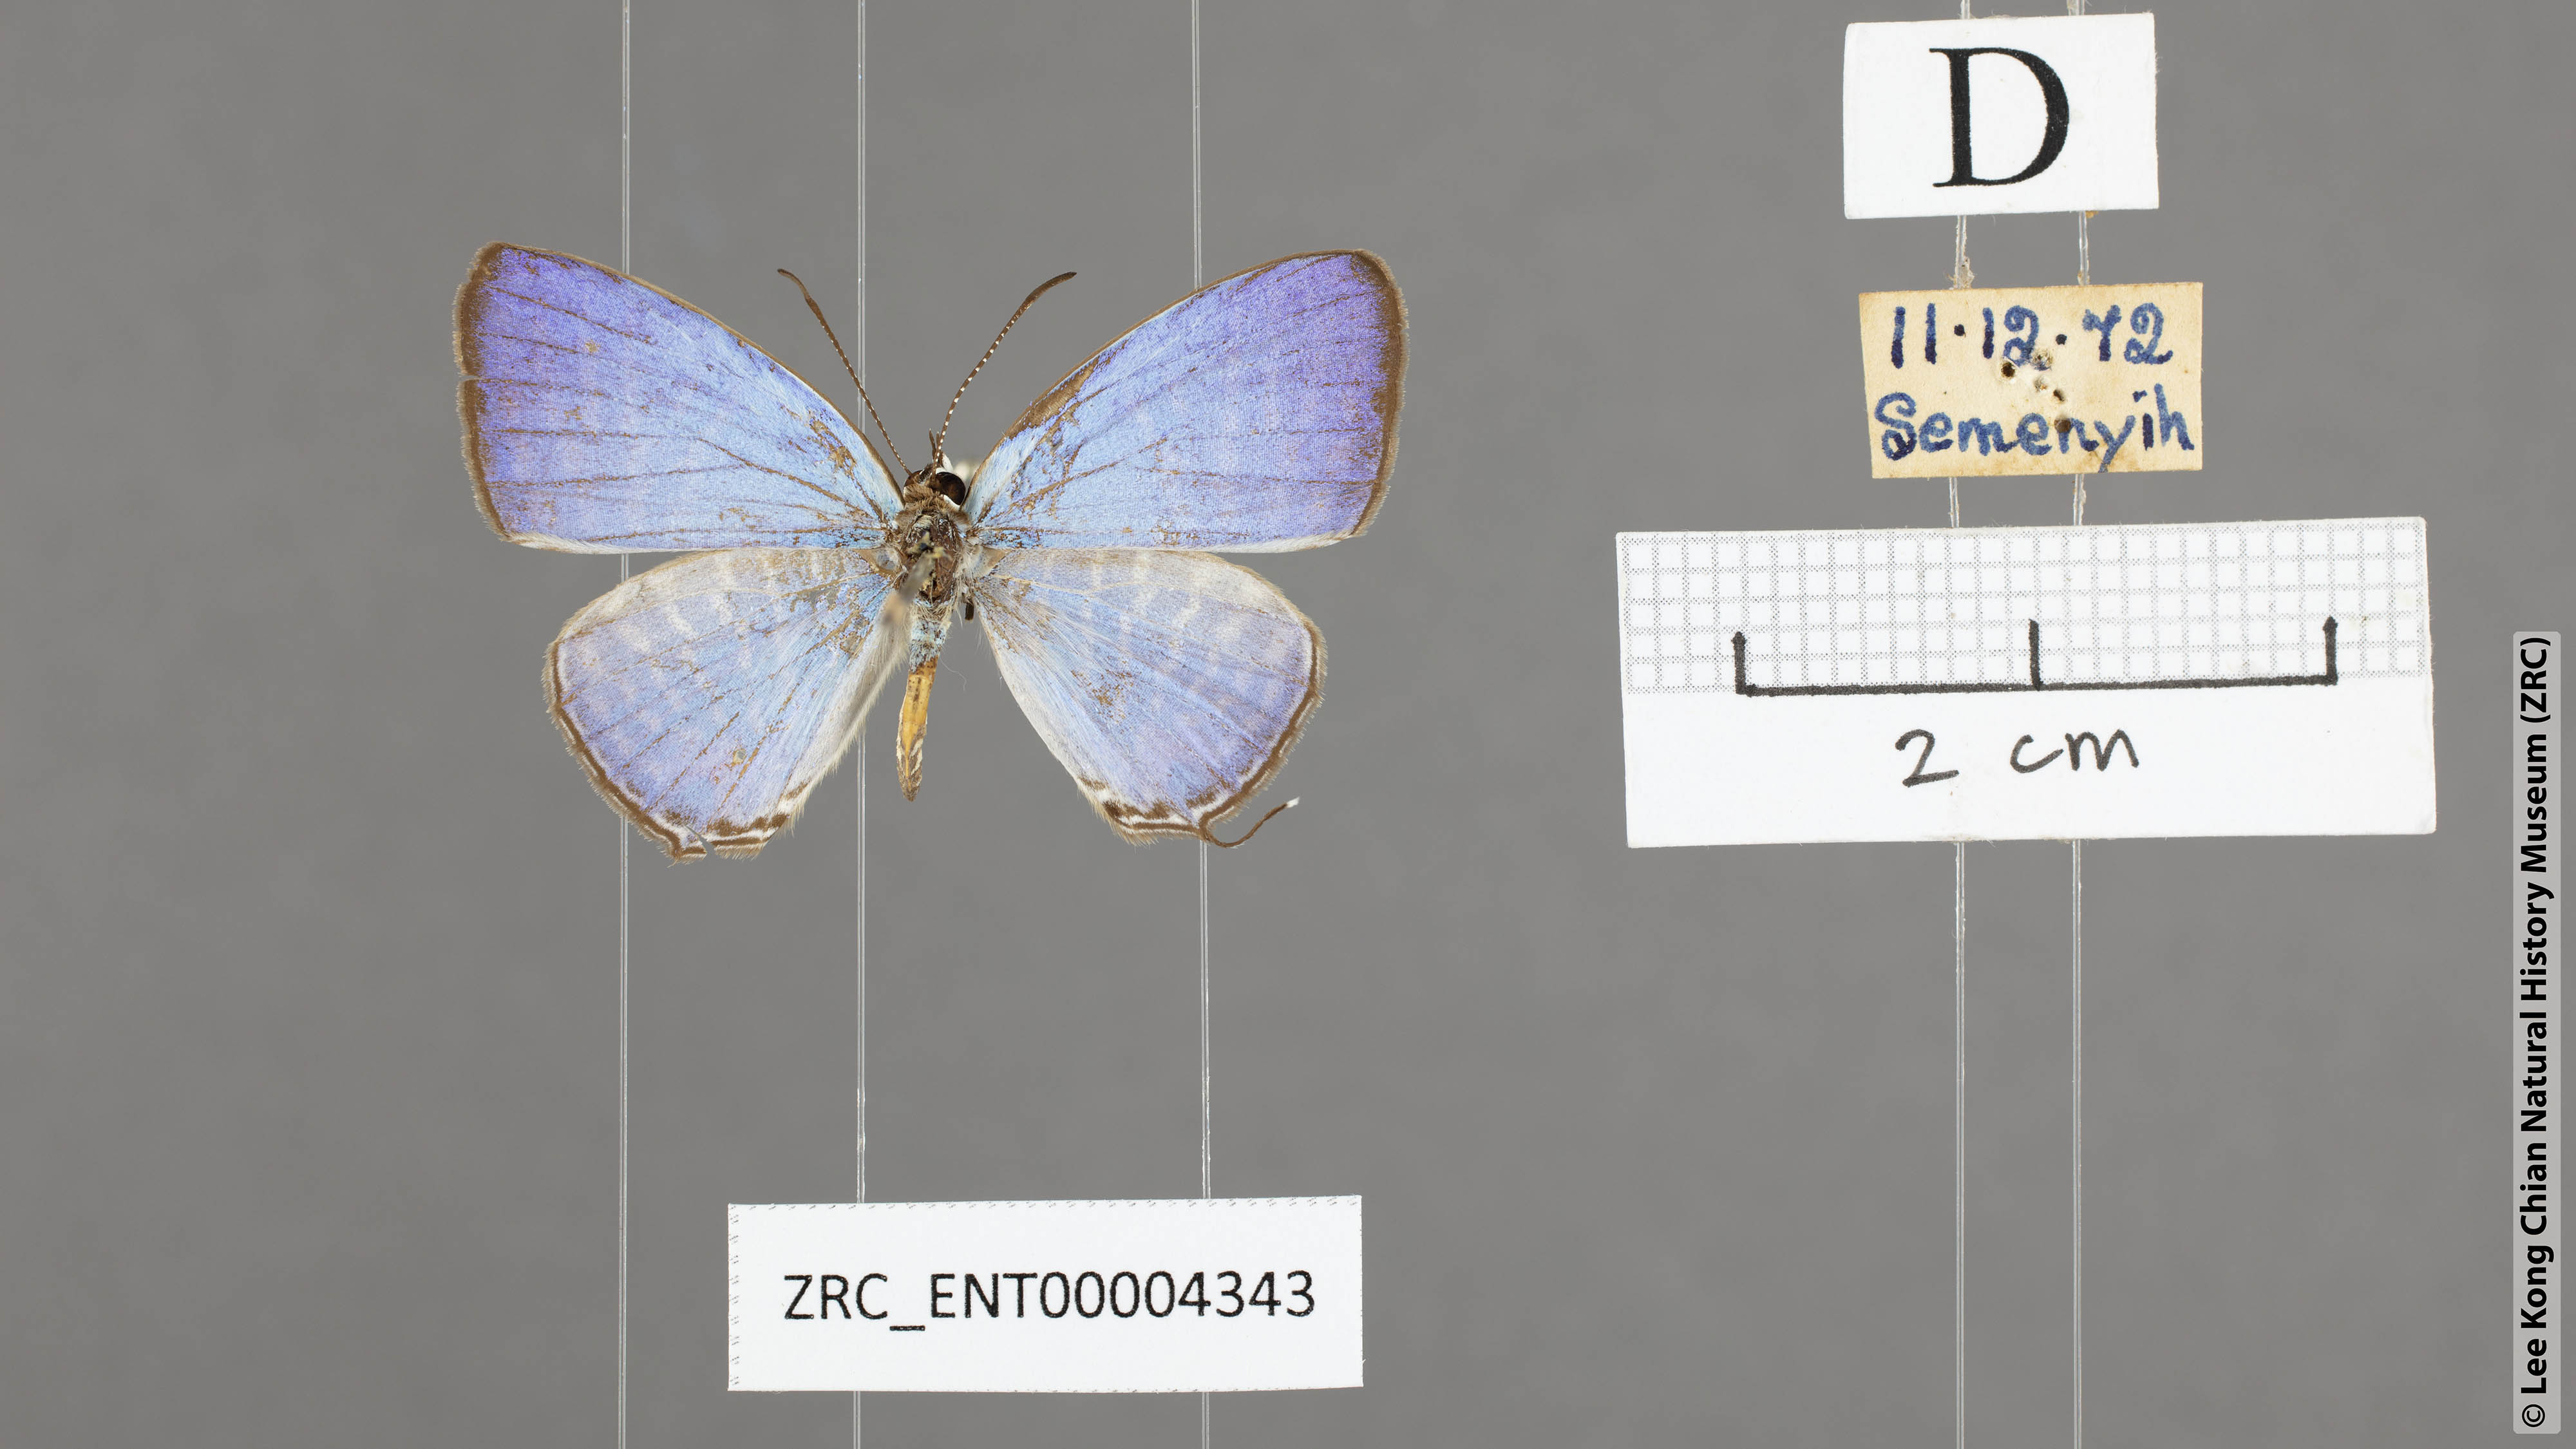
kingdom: Animalia
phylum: Arthropoda
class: Insecta
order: Lepidoptera
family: Lycaenidae
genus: Jamides
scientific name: Jamides parasaturata
